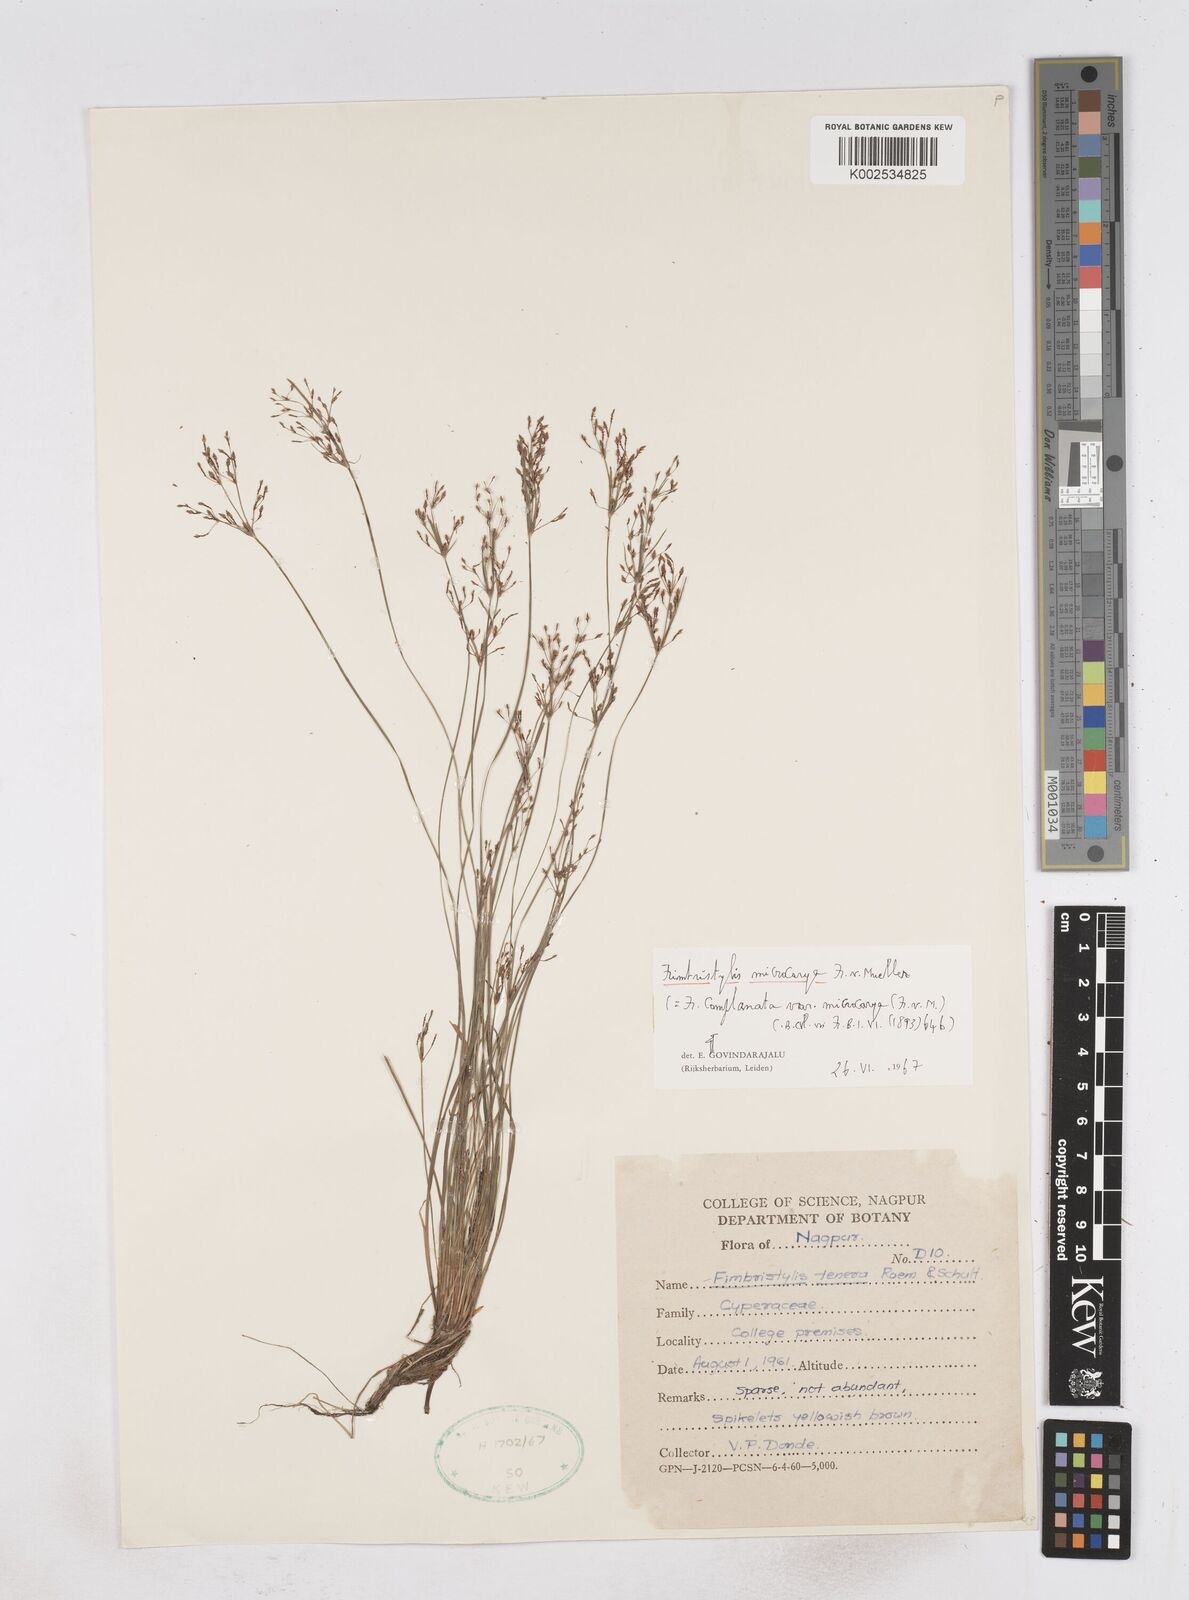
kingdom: Plantae
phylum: Tracheophyta
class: Liliopsida
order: Poales
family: Cyperaceae
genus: Fimbristylis
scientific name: Fimbristylis microcarya
